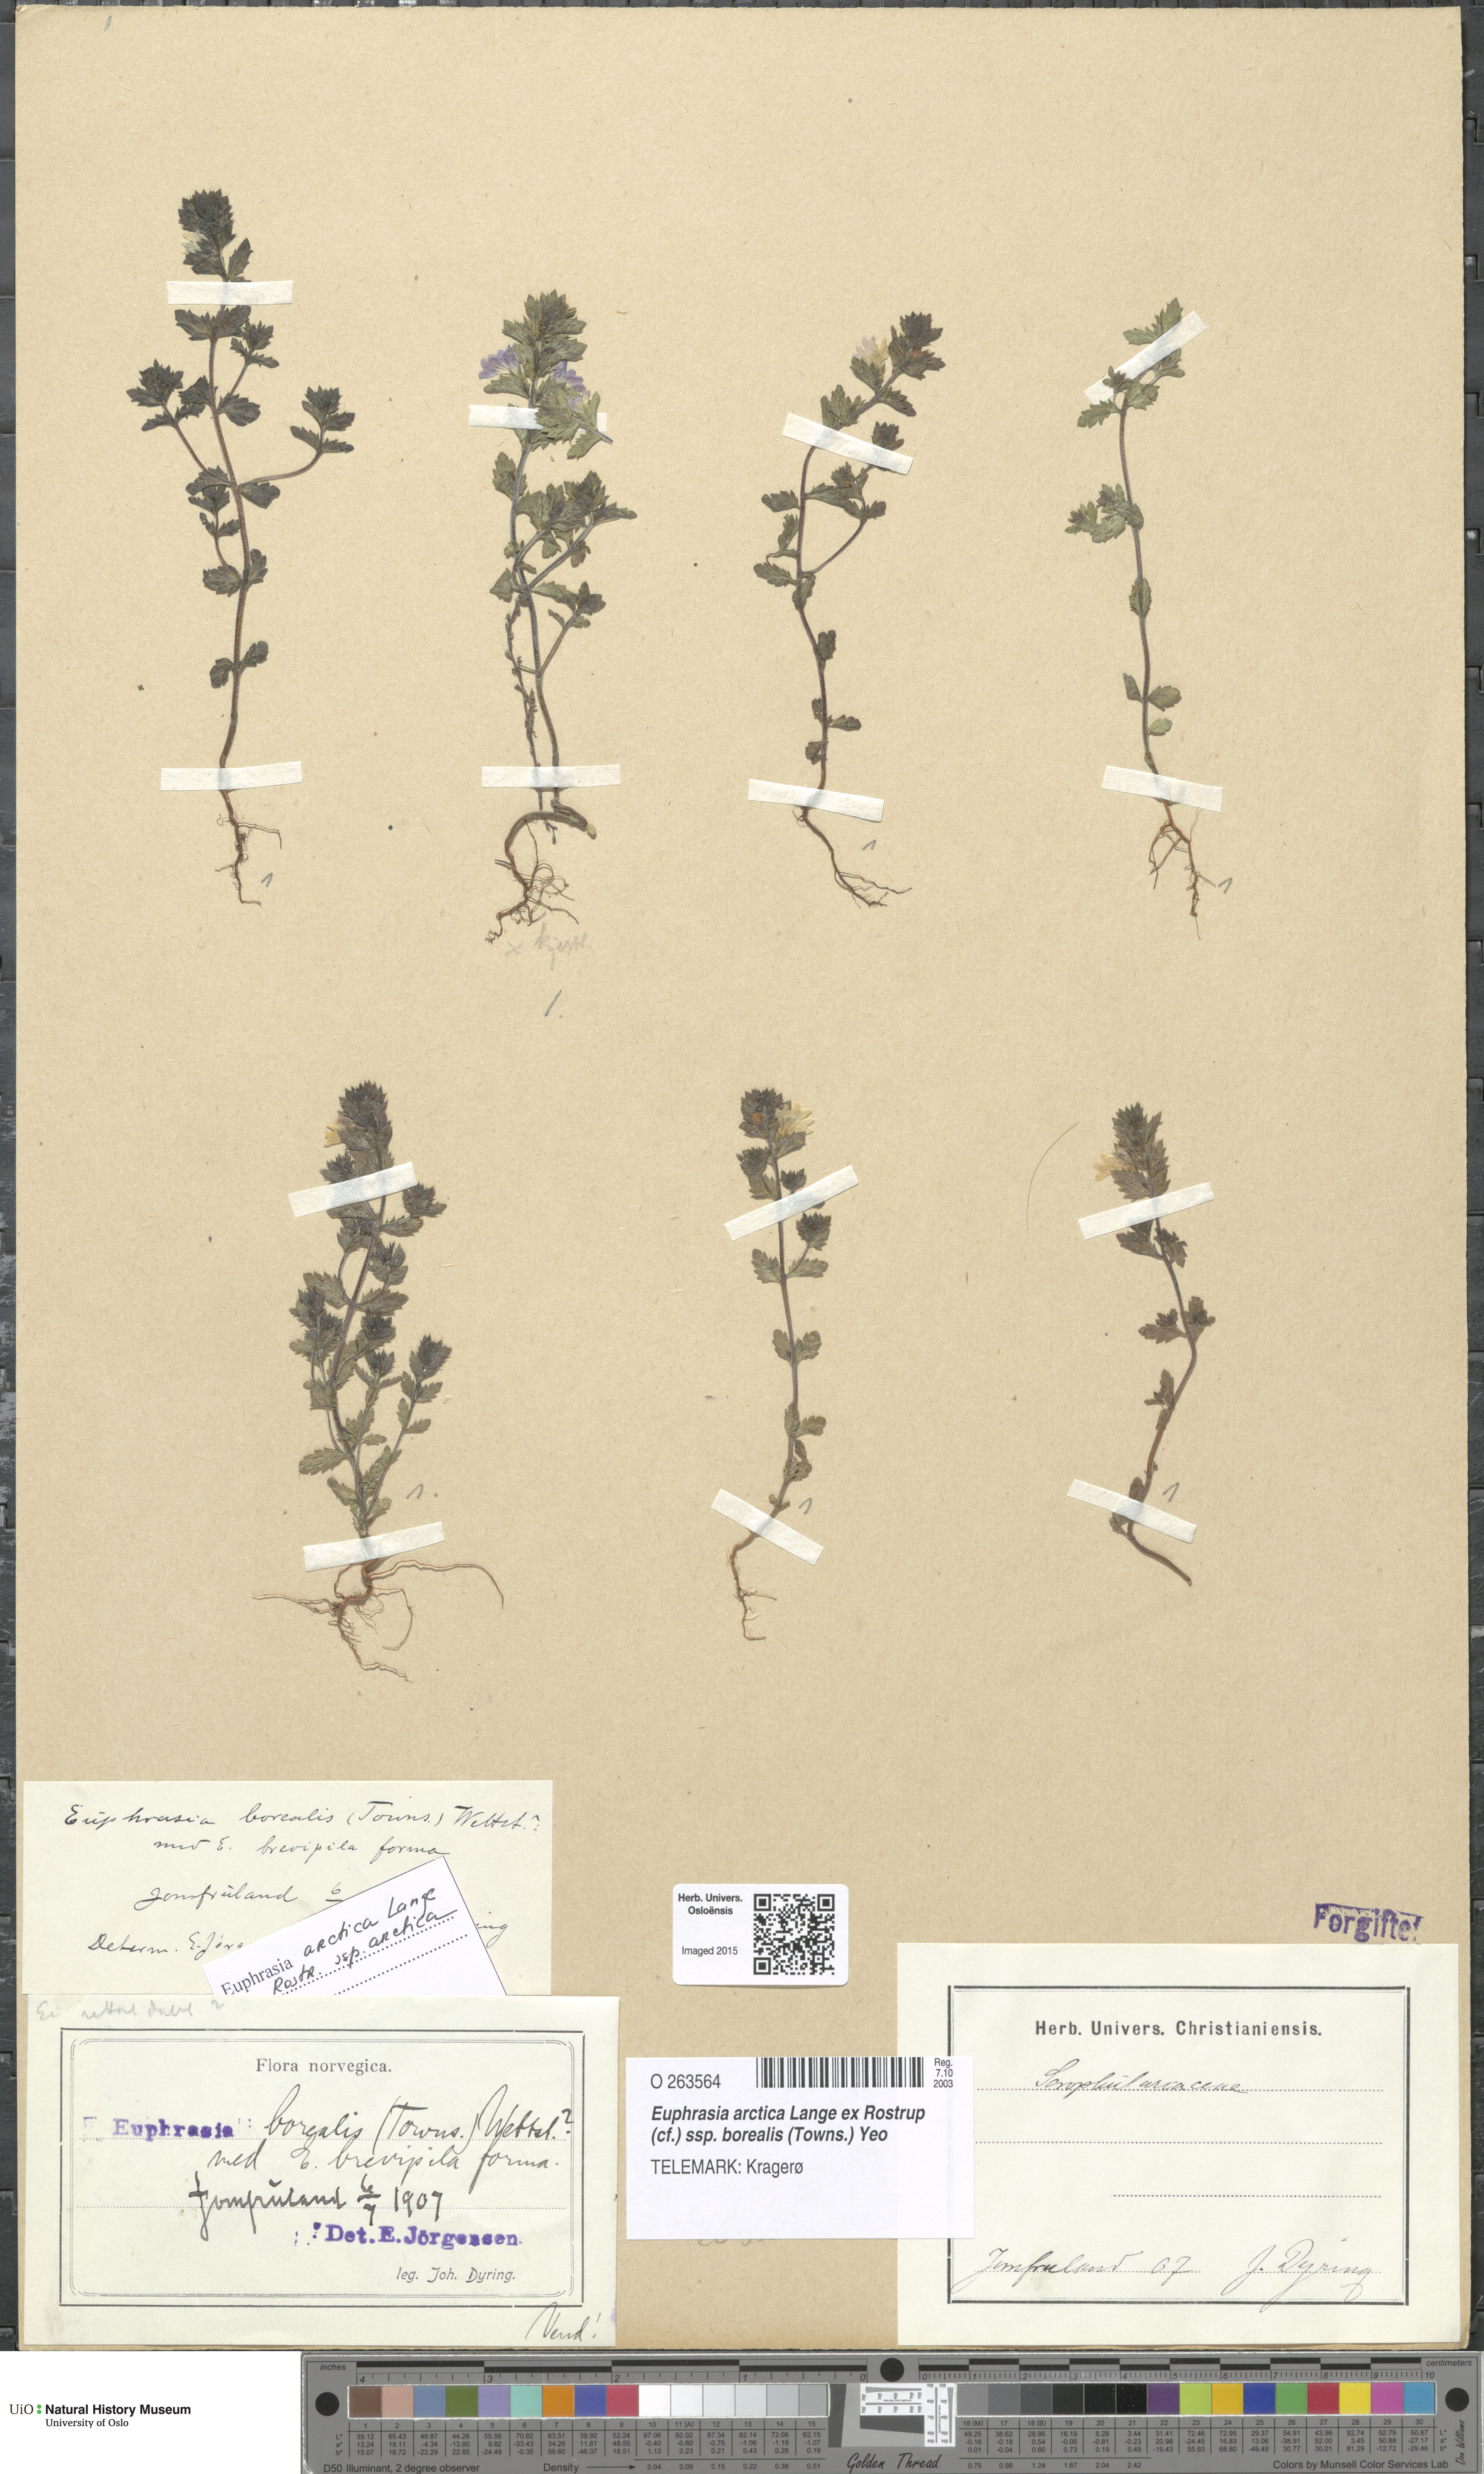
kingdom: Plantae
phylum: Tracheophyta
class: Magnoliopsida
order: Lamiales
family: Orobanchaceae
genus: Euphrasia
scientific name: Euphrasia arctica
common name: An eyebright
